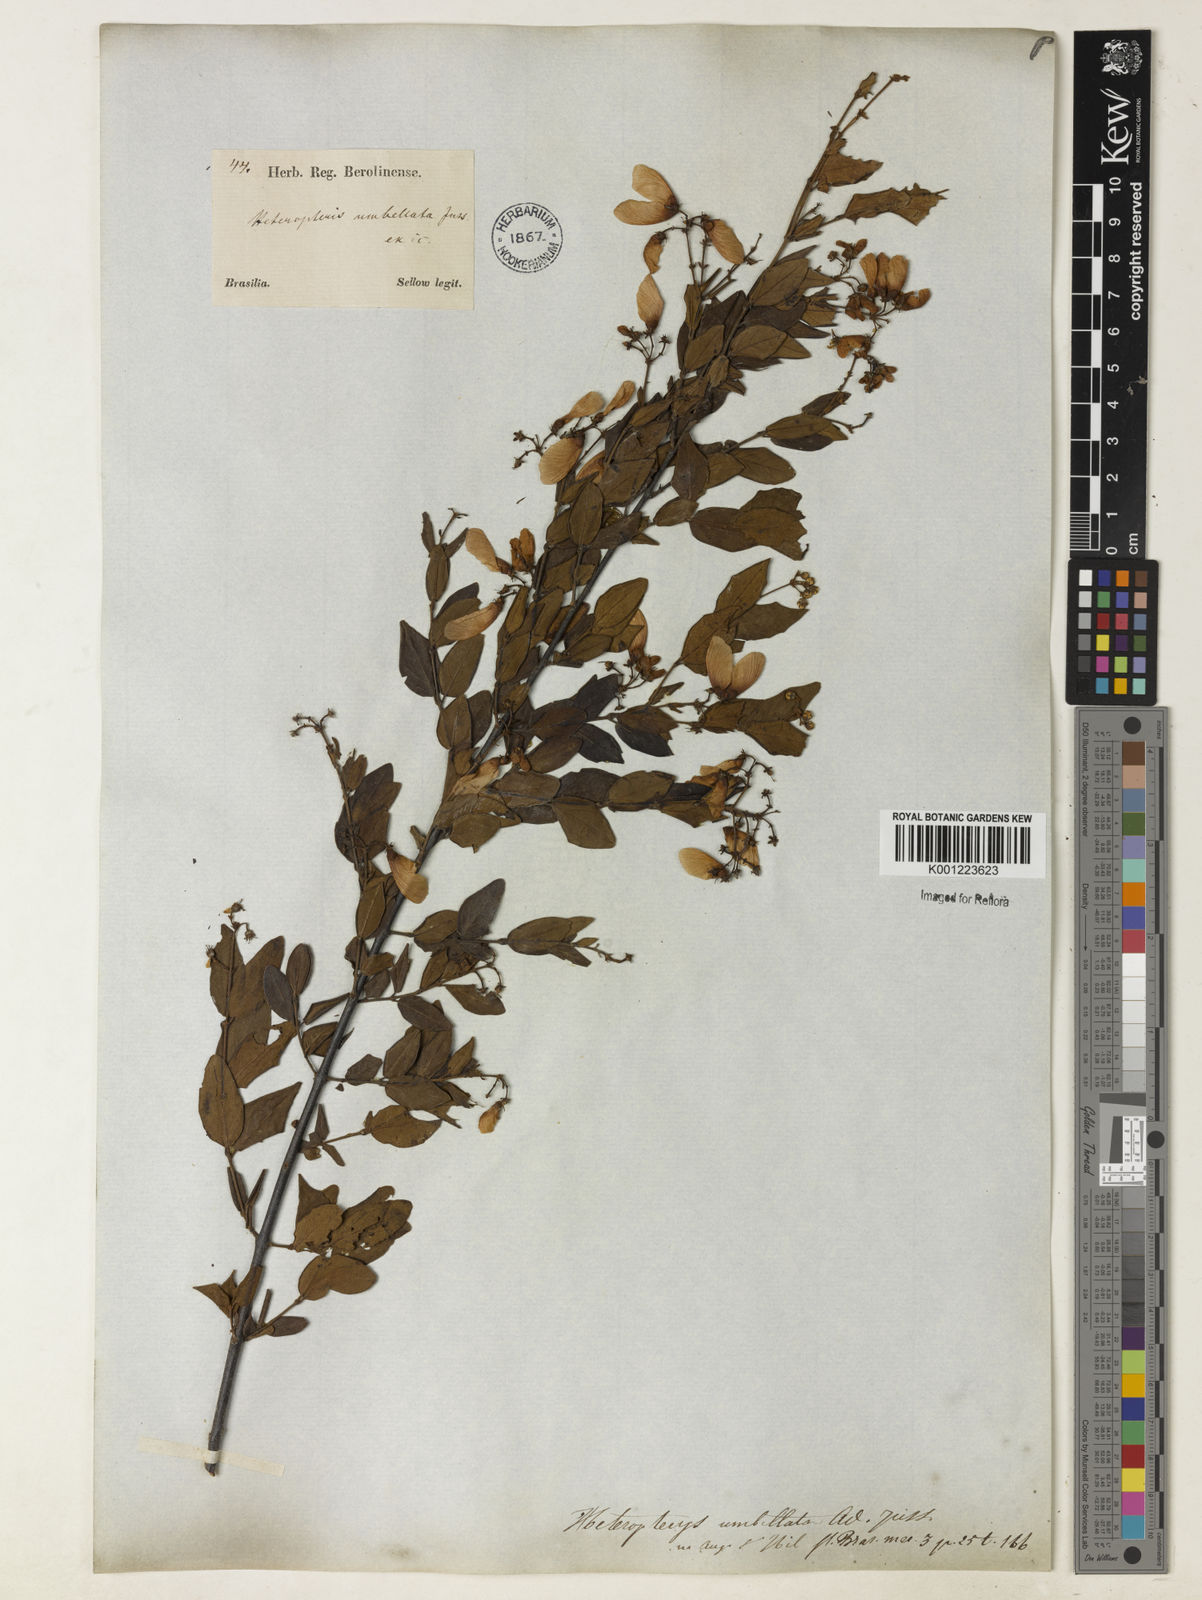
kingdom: Plantae
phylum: Tracheophyta
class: Magnoliopsida
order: Malpighiales
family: Malpighiaceae
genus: Heteropterys
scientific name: Heteropterys umbellata
